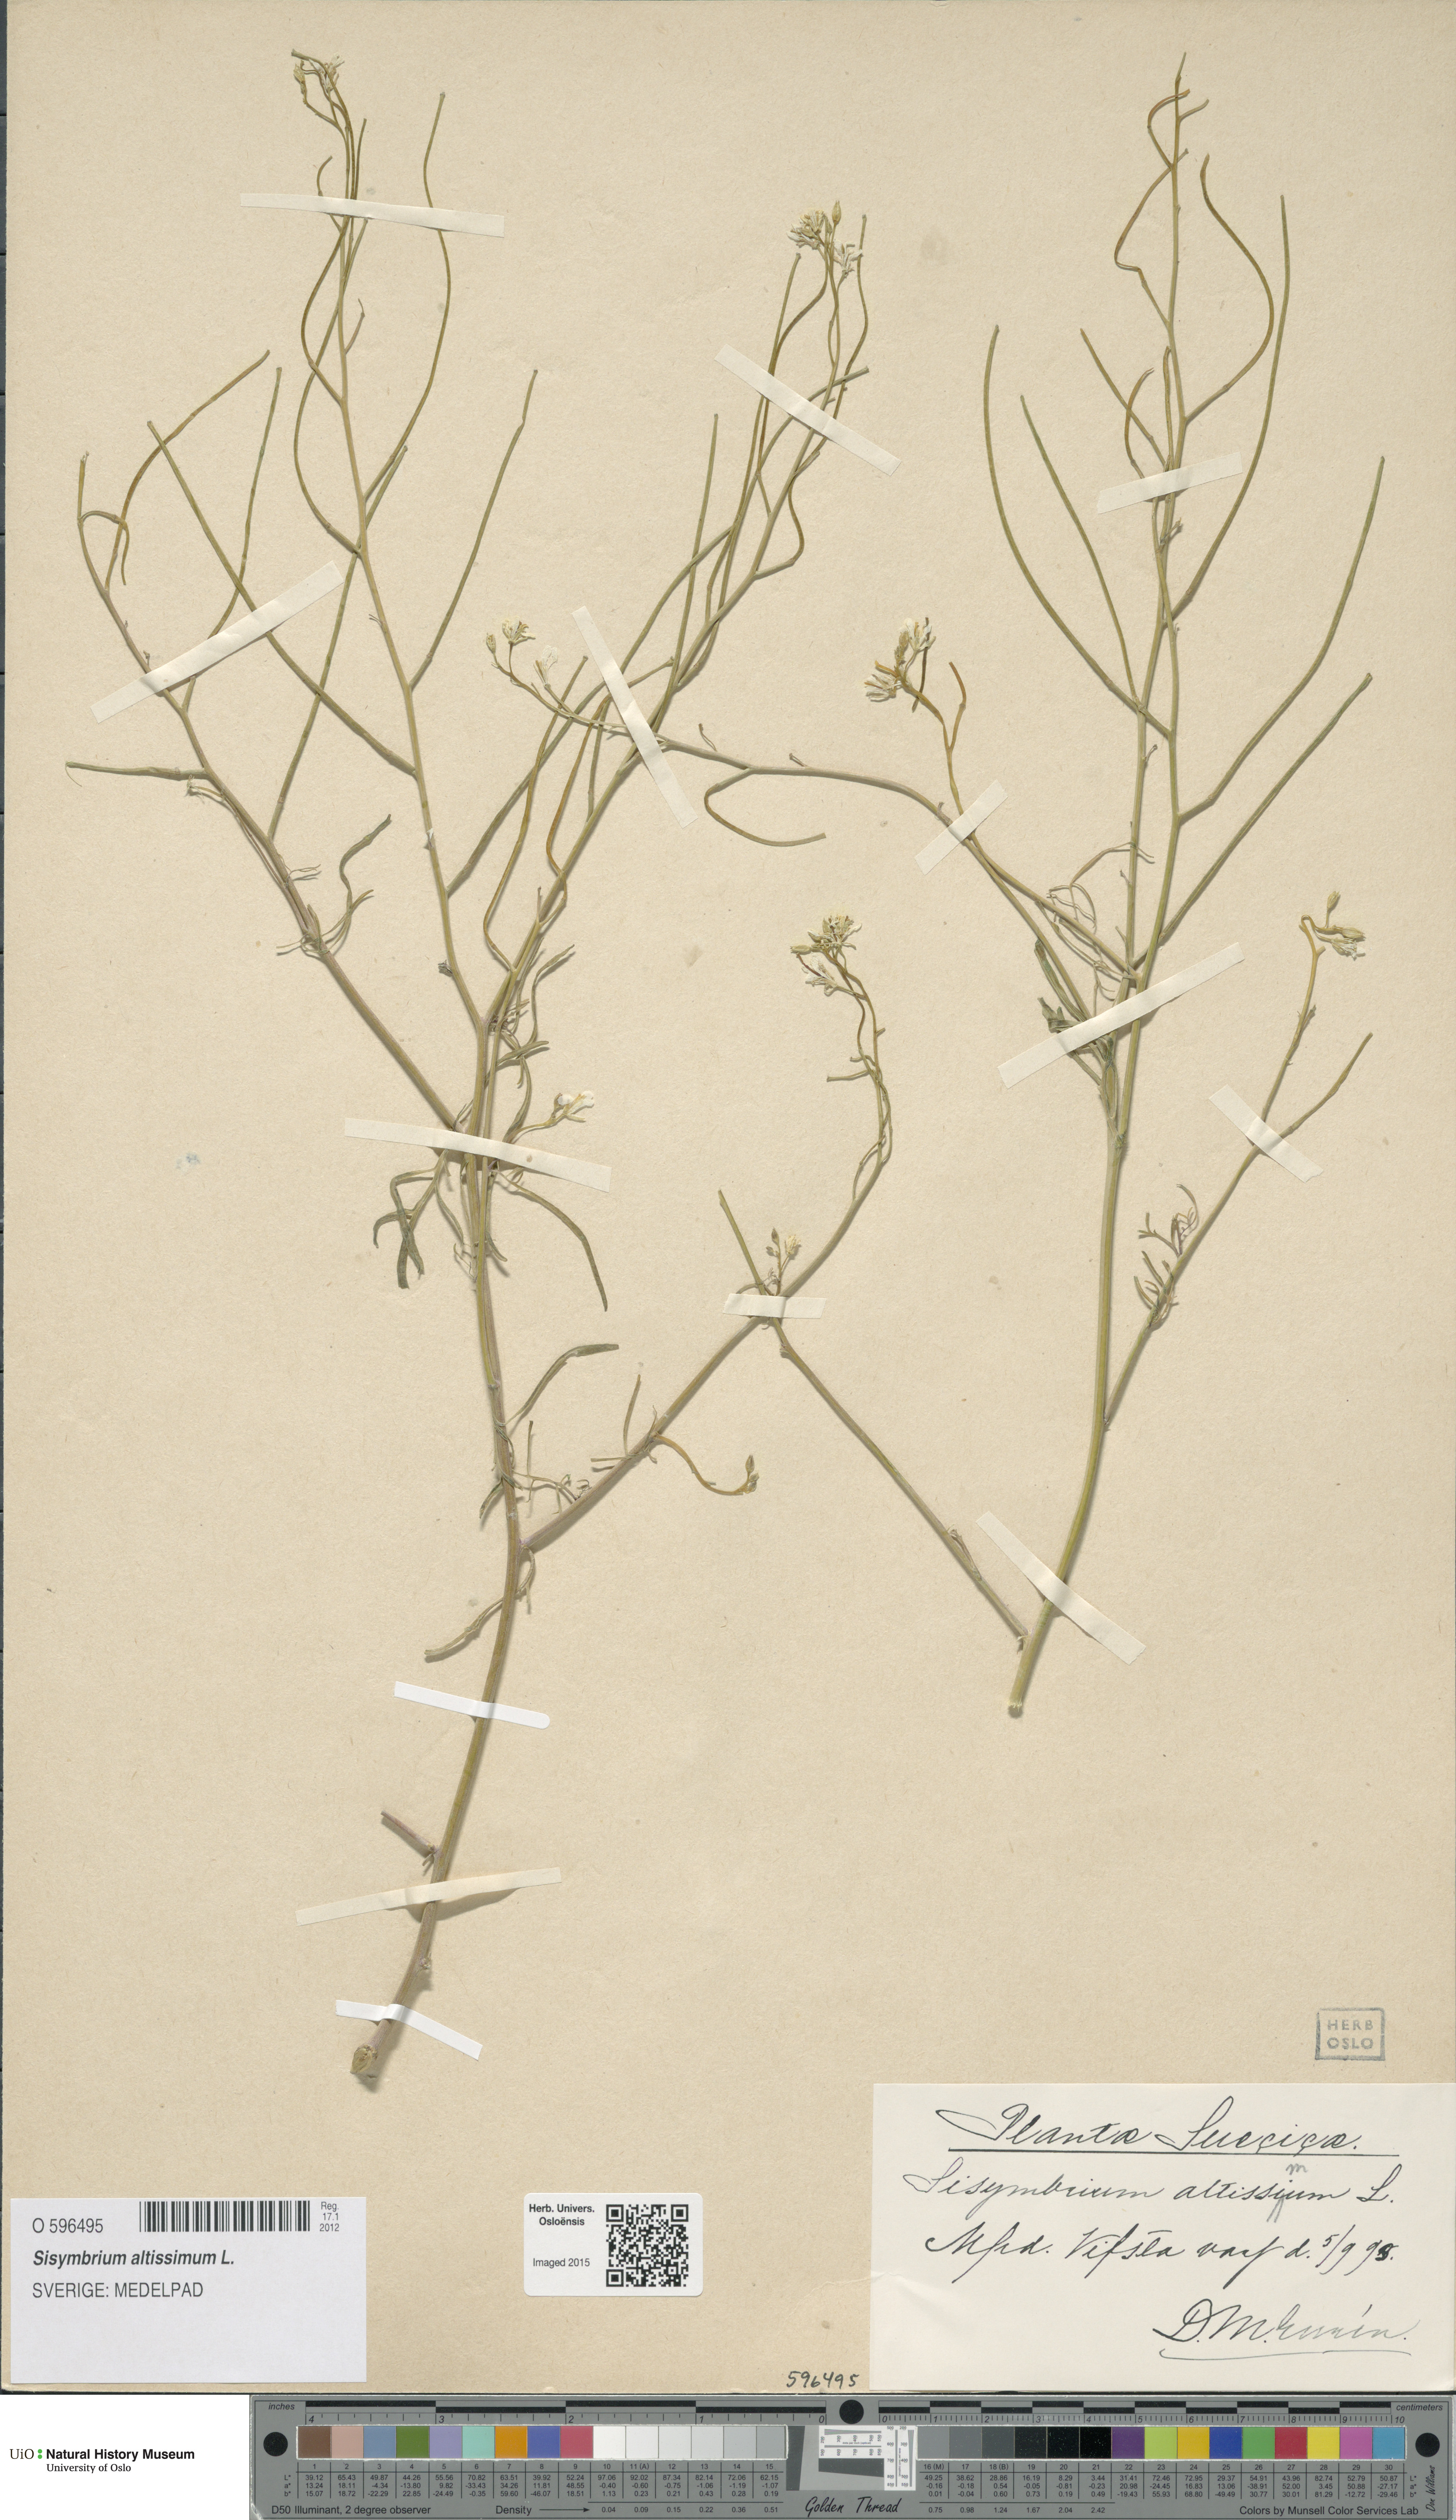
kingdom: Plantae
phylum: Tracheophyta
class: Magnoliopsida
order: Brassicales
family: Brassicaceae
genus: Sisymbrium
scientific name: Sisymbrium altissimum
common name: Tall rocket
